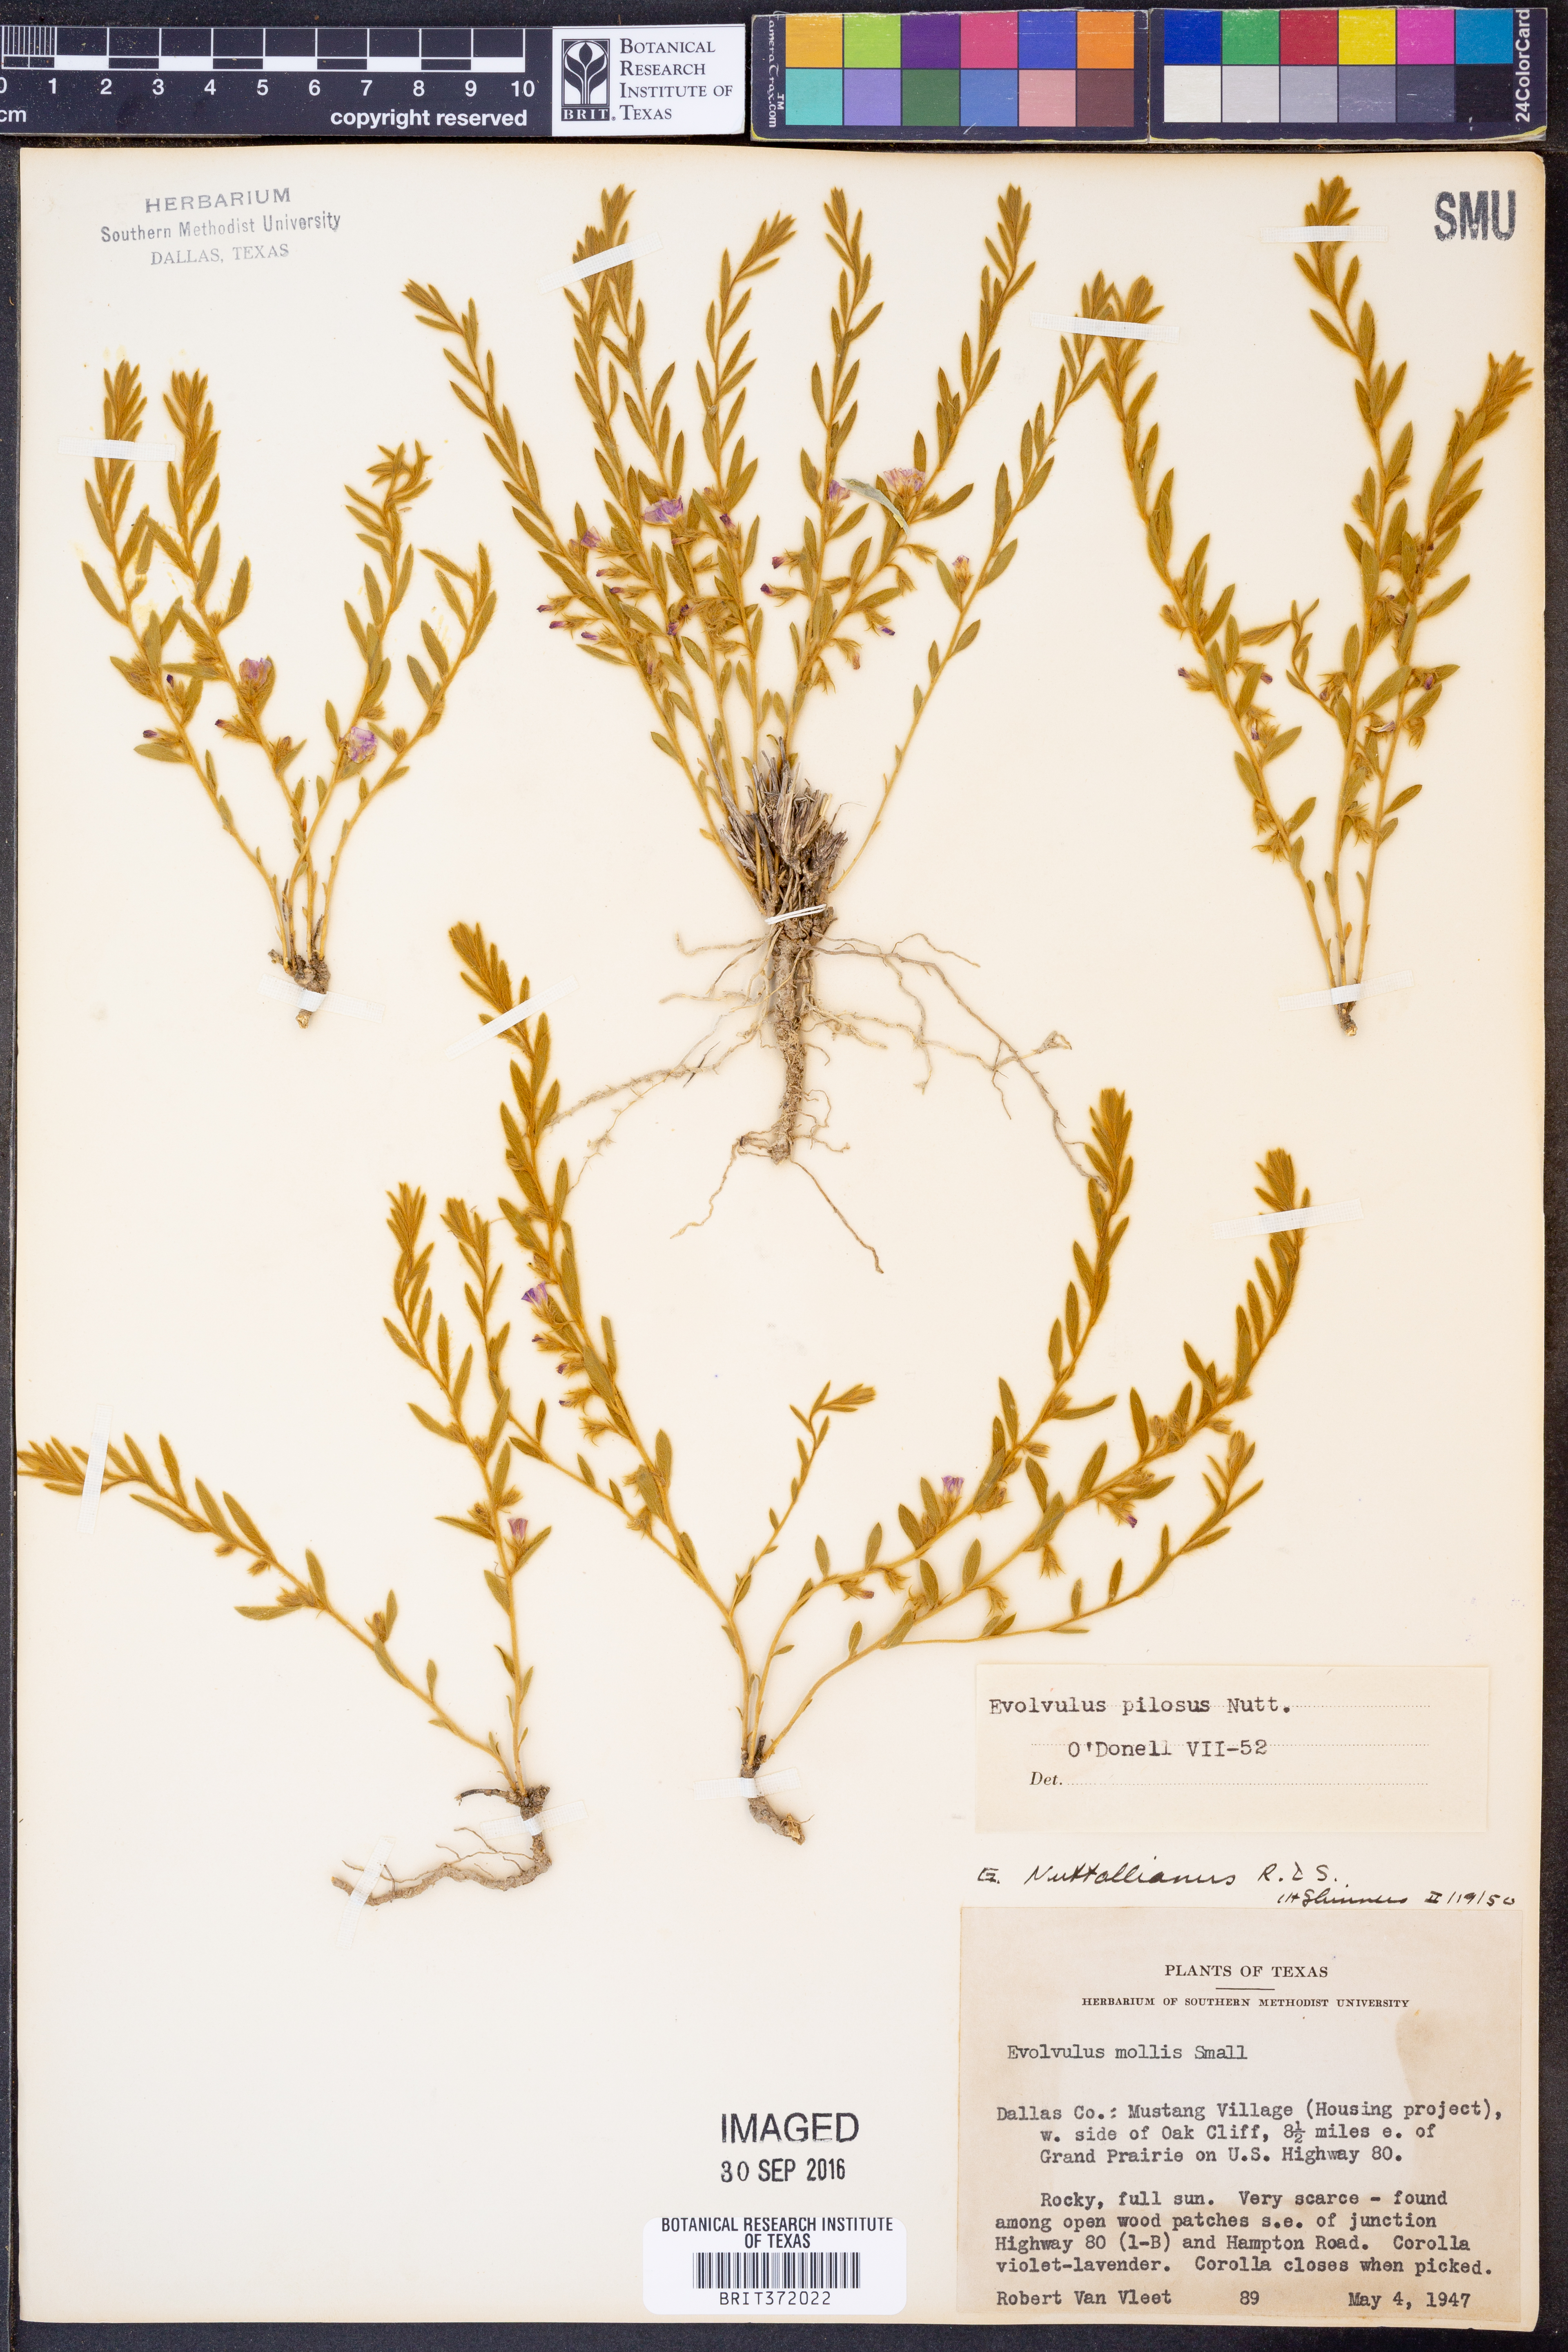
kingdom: Plantae
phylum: Tracheophyta
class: Magnoliopsida
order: Solanales
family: Convolvulaceae
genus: Evolvulus
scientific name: Evolvulus nuttallianus
